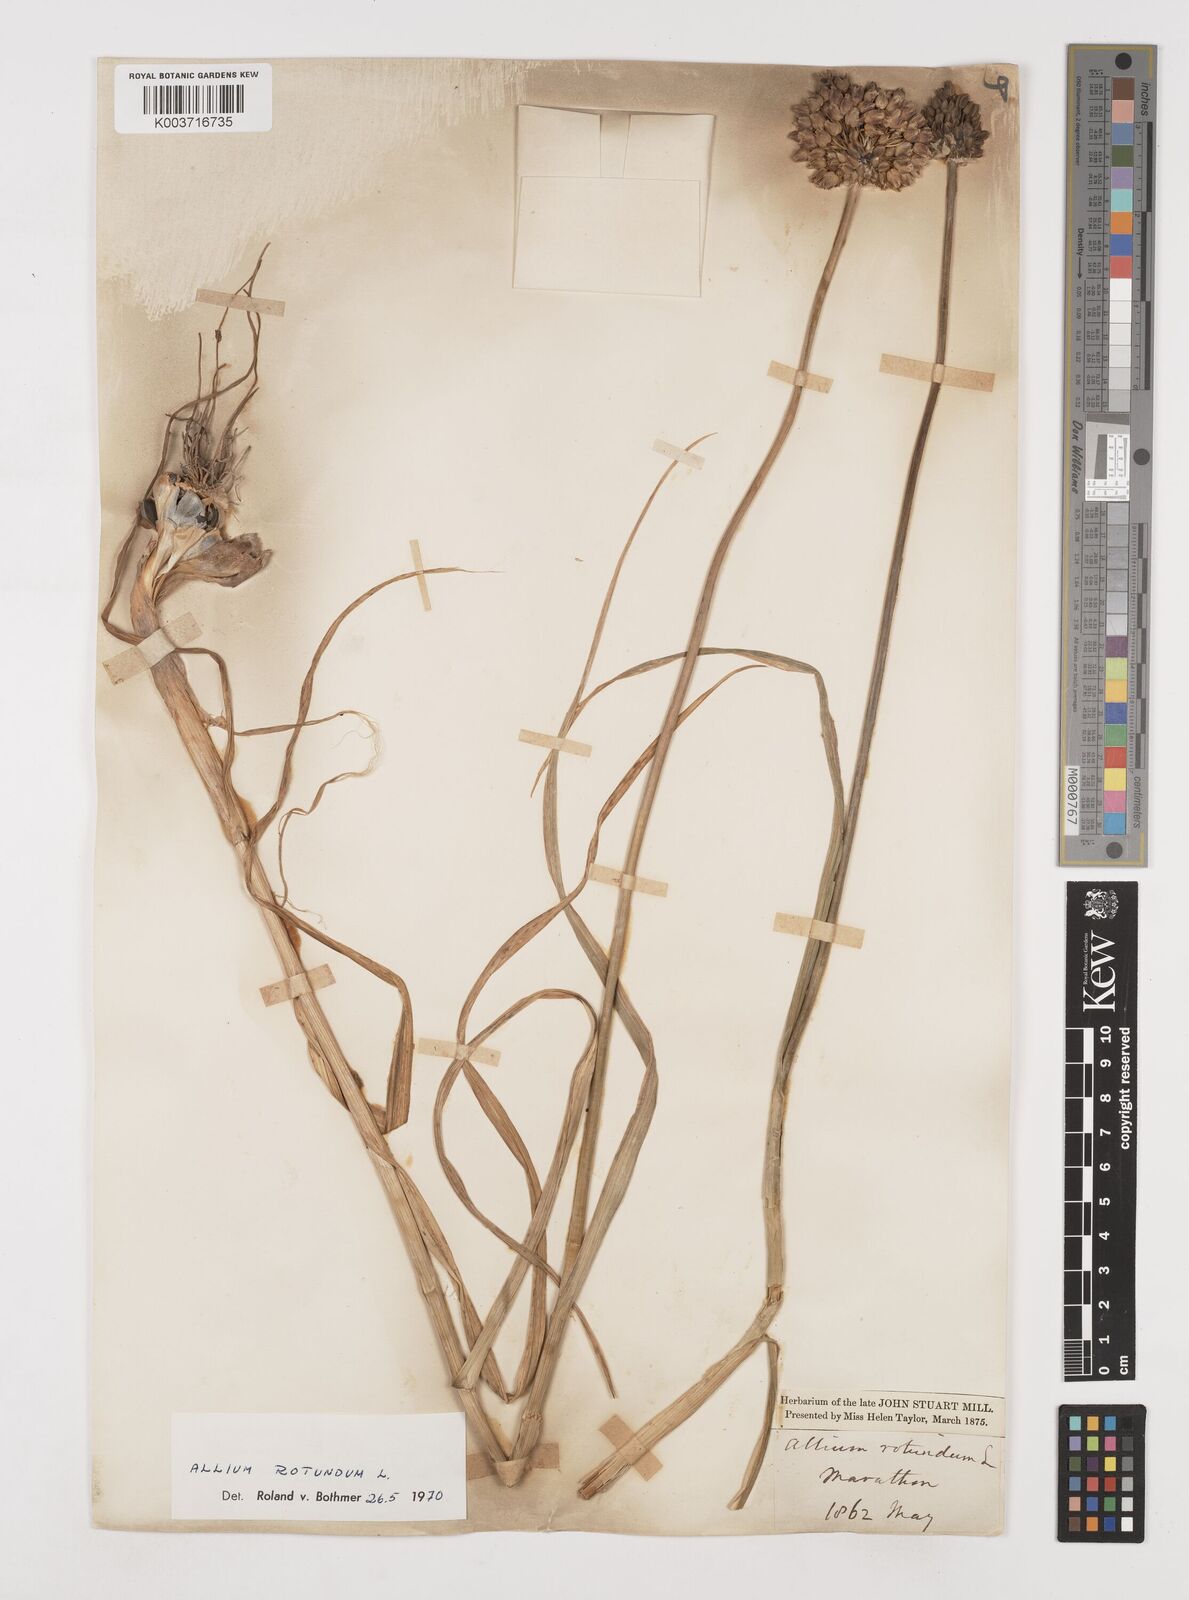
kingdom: Plantae
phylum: Tracheophyta
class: Liliopsida
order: Asparagales
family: Amaryllidaceae
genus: Allium
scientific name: Allium rotundum
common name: Sand leek
